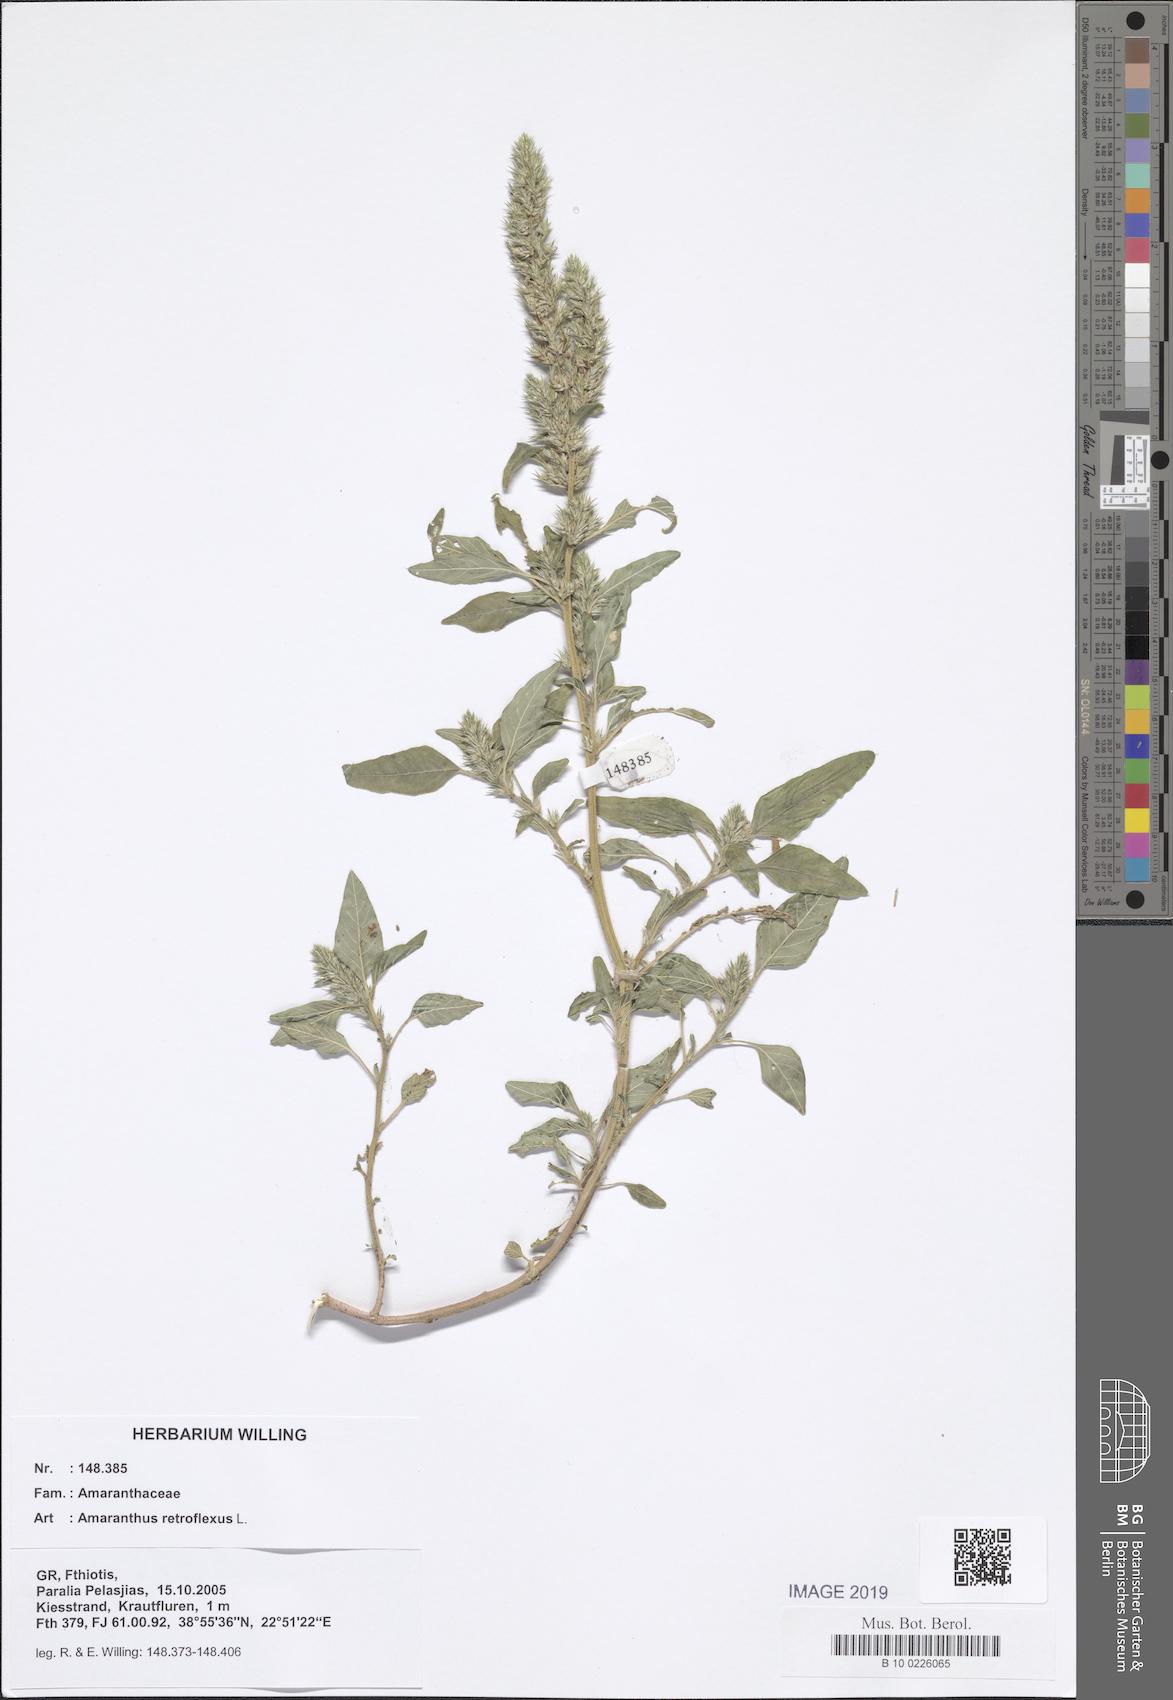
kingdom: Plantae
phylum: Tracheophyta
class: Magnoliopsida
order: Caryophyllales
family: Amaranthaceae
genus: Amaranthus
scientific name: Amaranthus retroflexus
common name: Redroot amaranth
